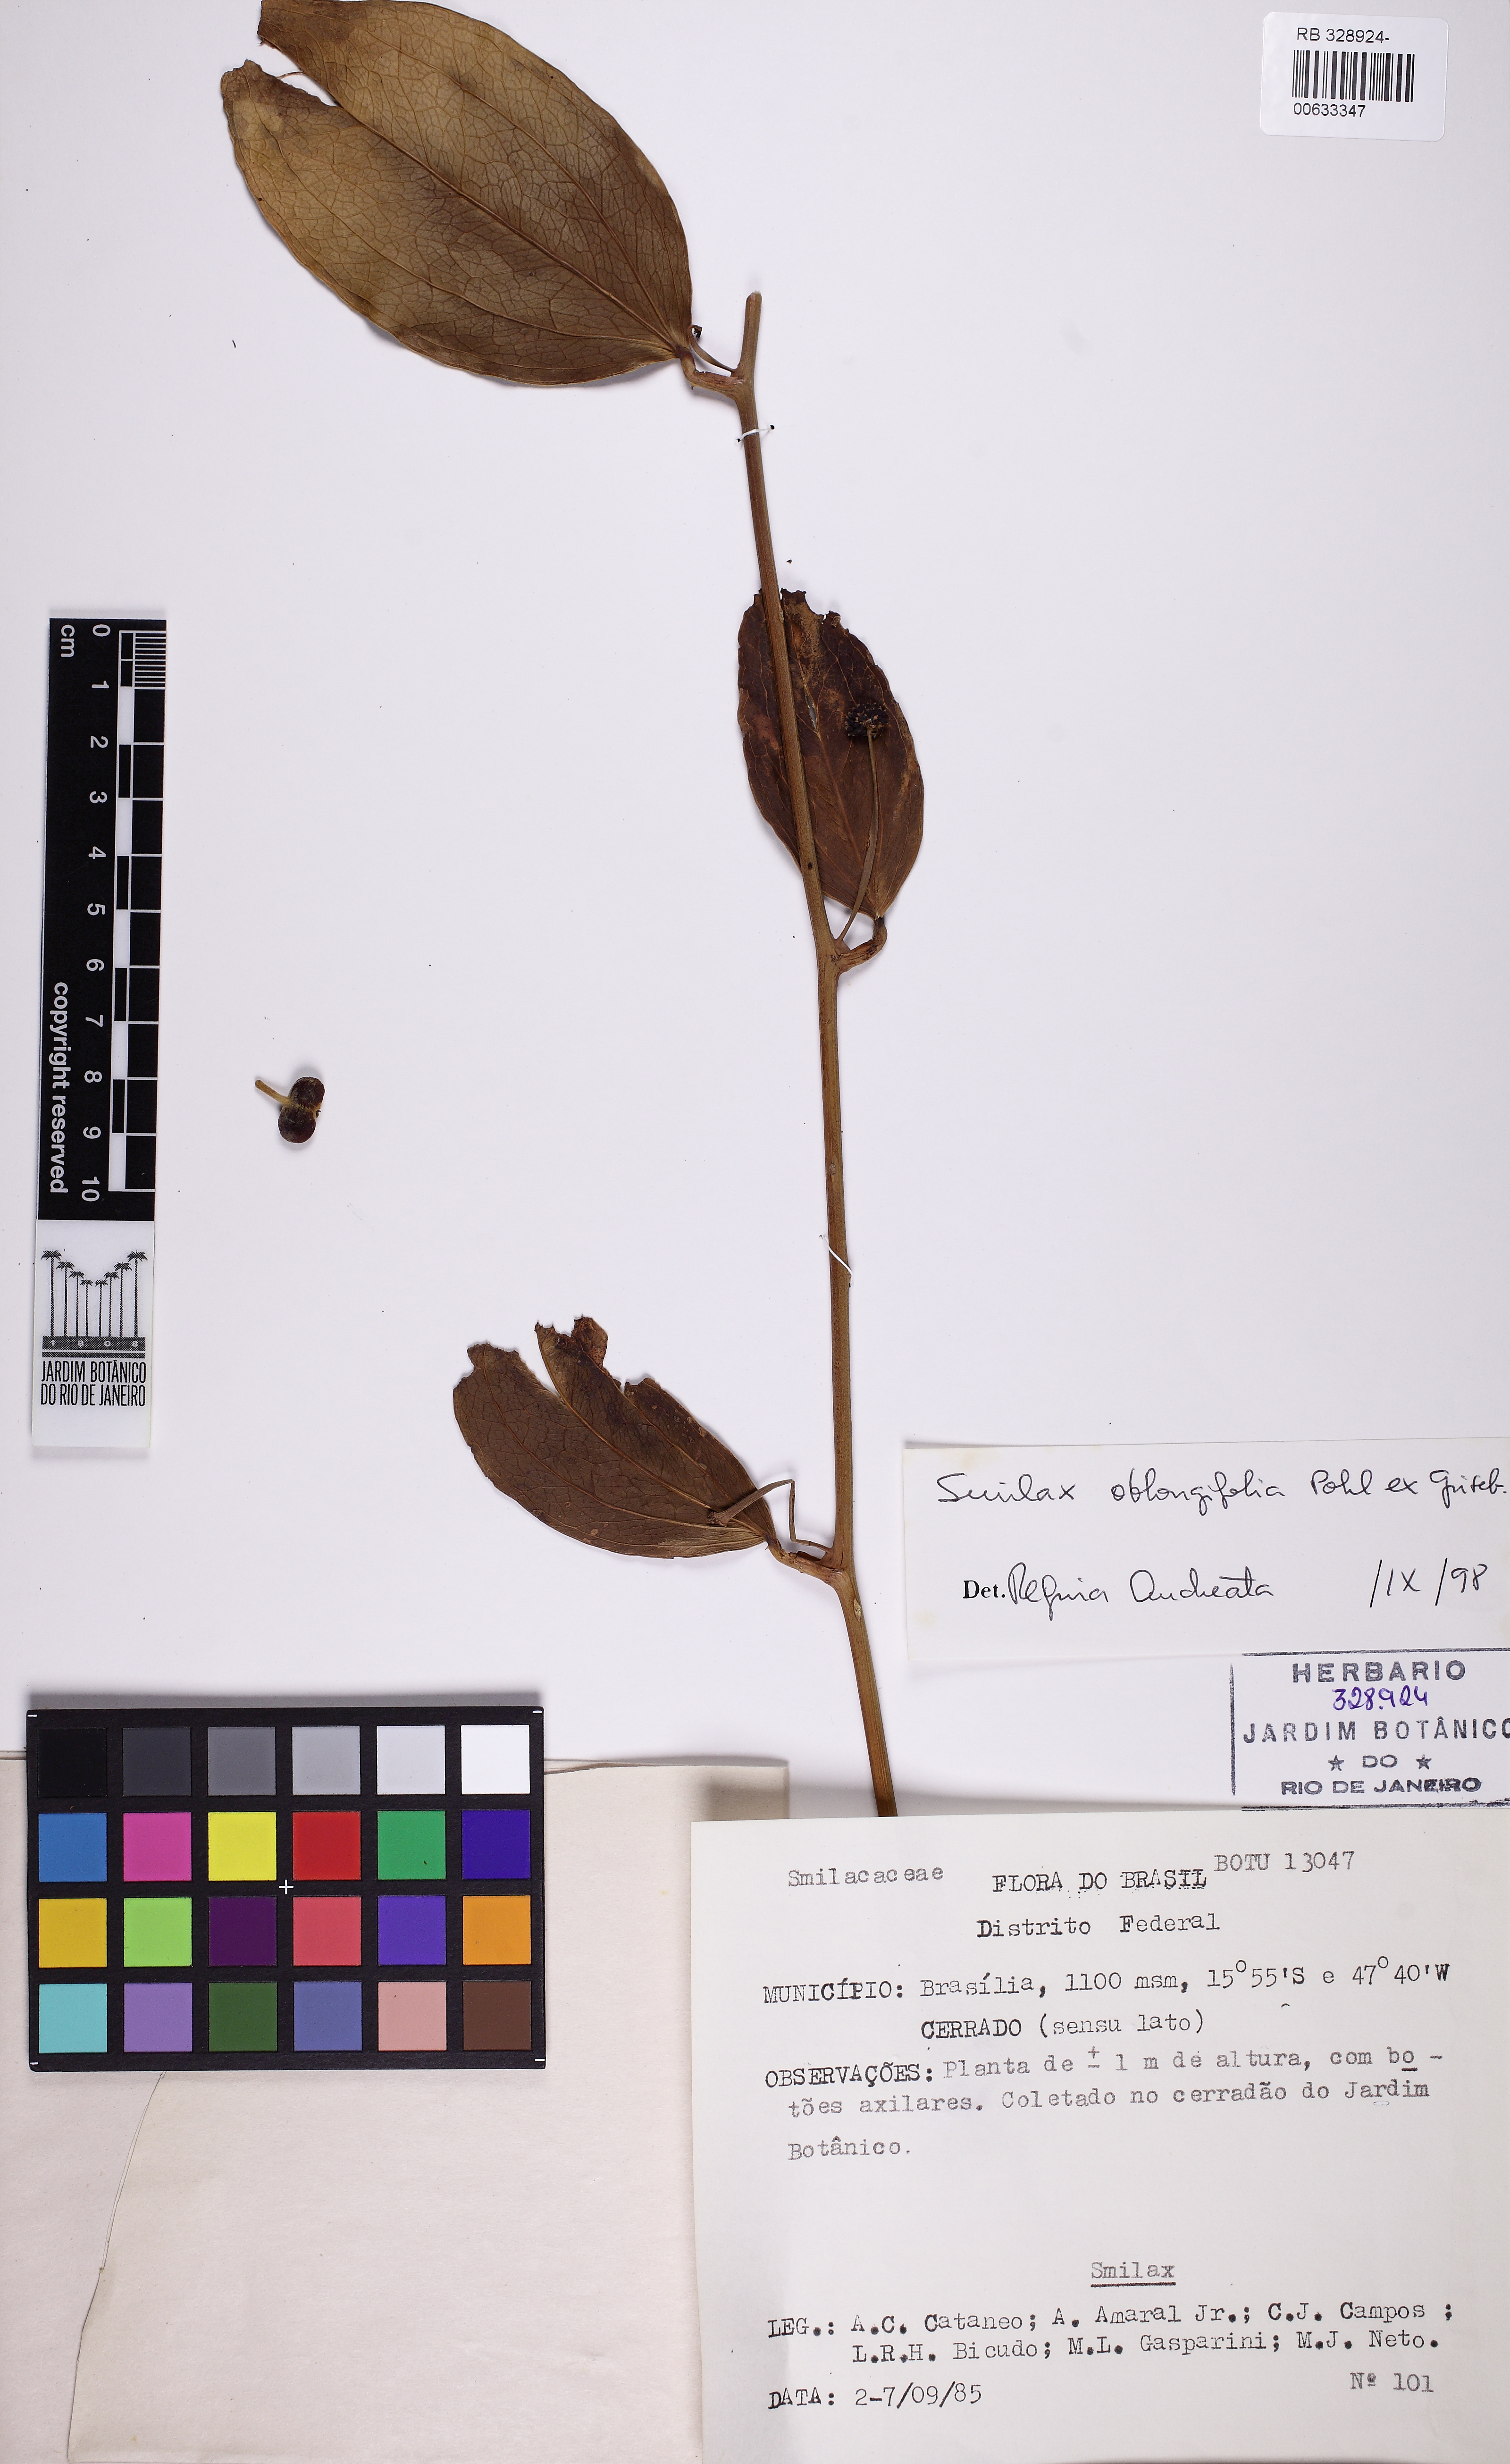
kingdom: Plantae
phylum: Tracheophyta
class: Liliopsida
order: Liliales
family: Smilacaceae
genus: Smilax
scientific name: Smilax oblongifolia
